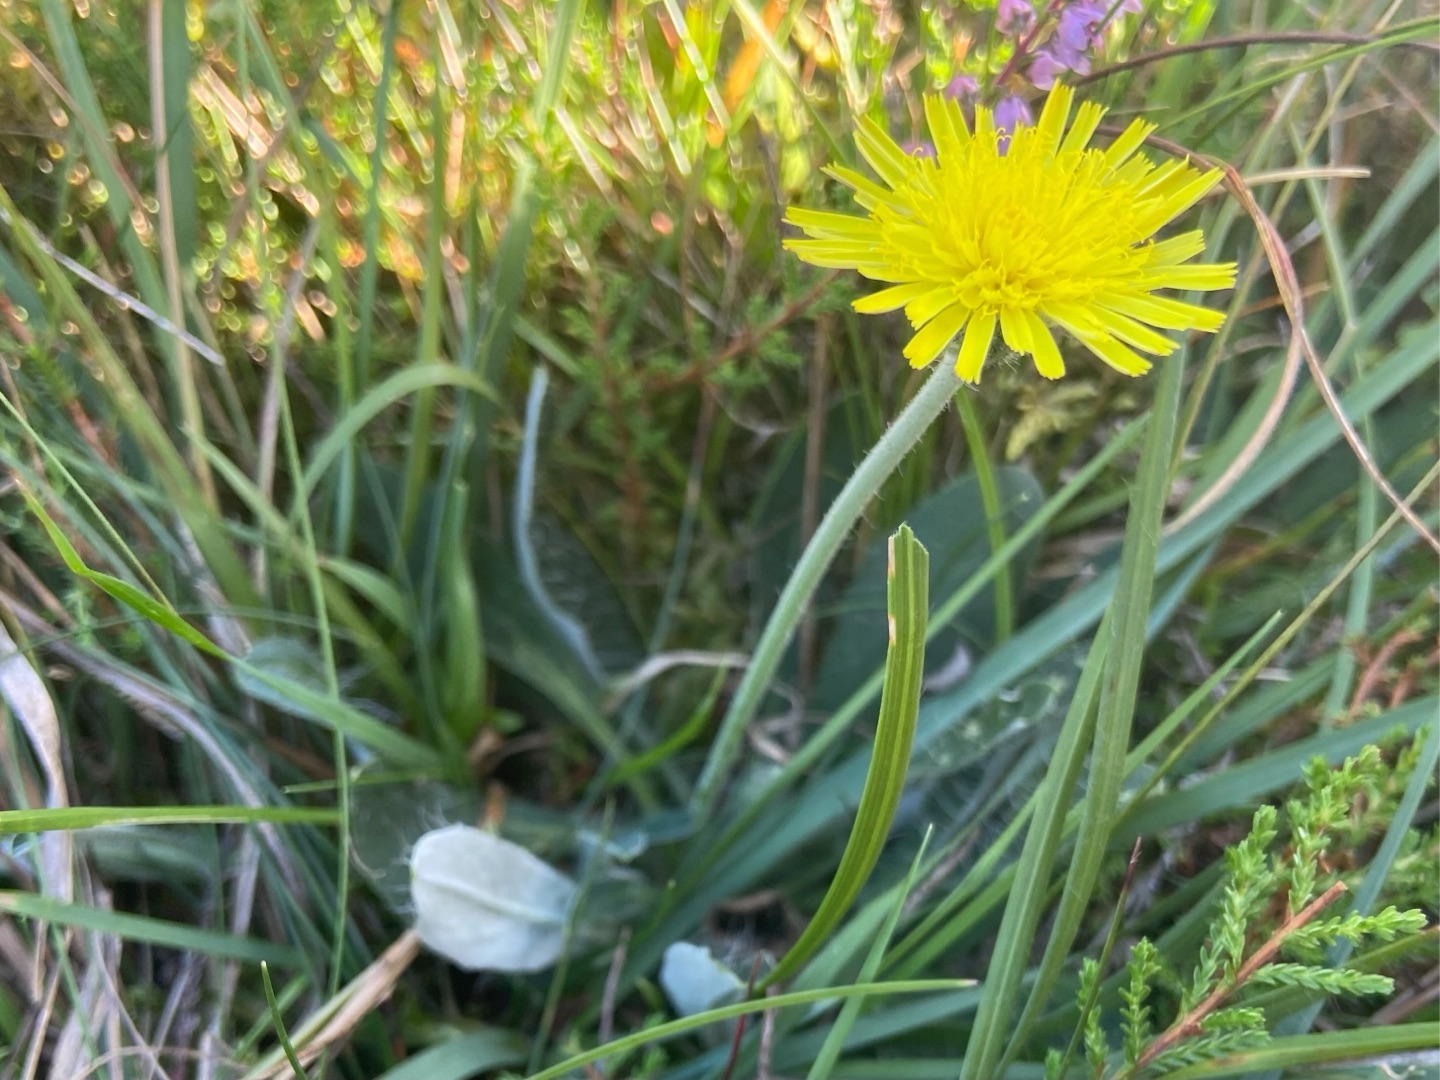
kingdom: Plantae
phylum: Tracheophyta
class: Magnoliopsida
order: Asterales
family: Asteraceae
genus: Pilosella
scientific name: Pilosella officinarum
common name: Håret høgeurt
